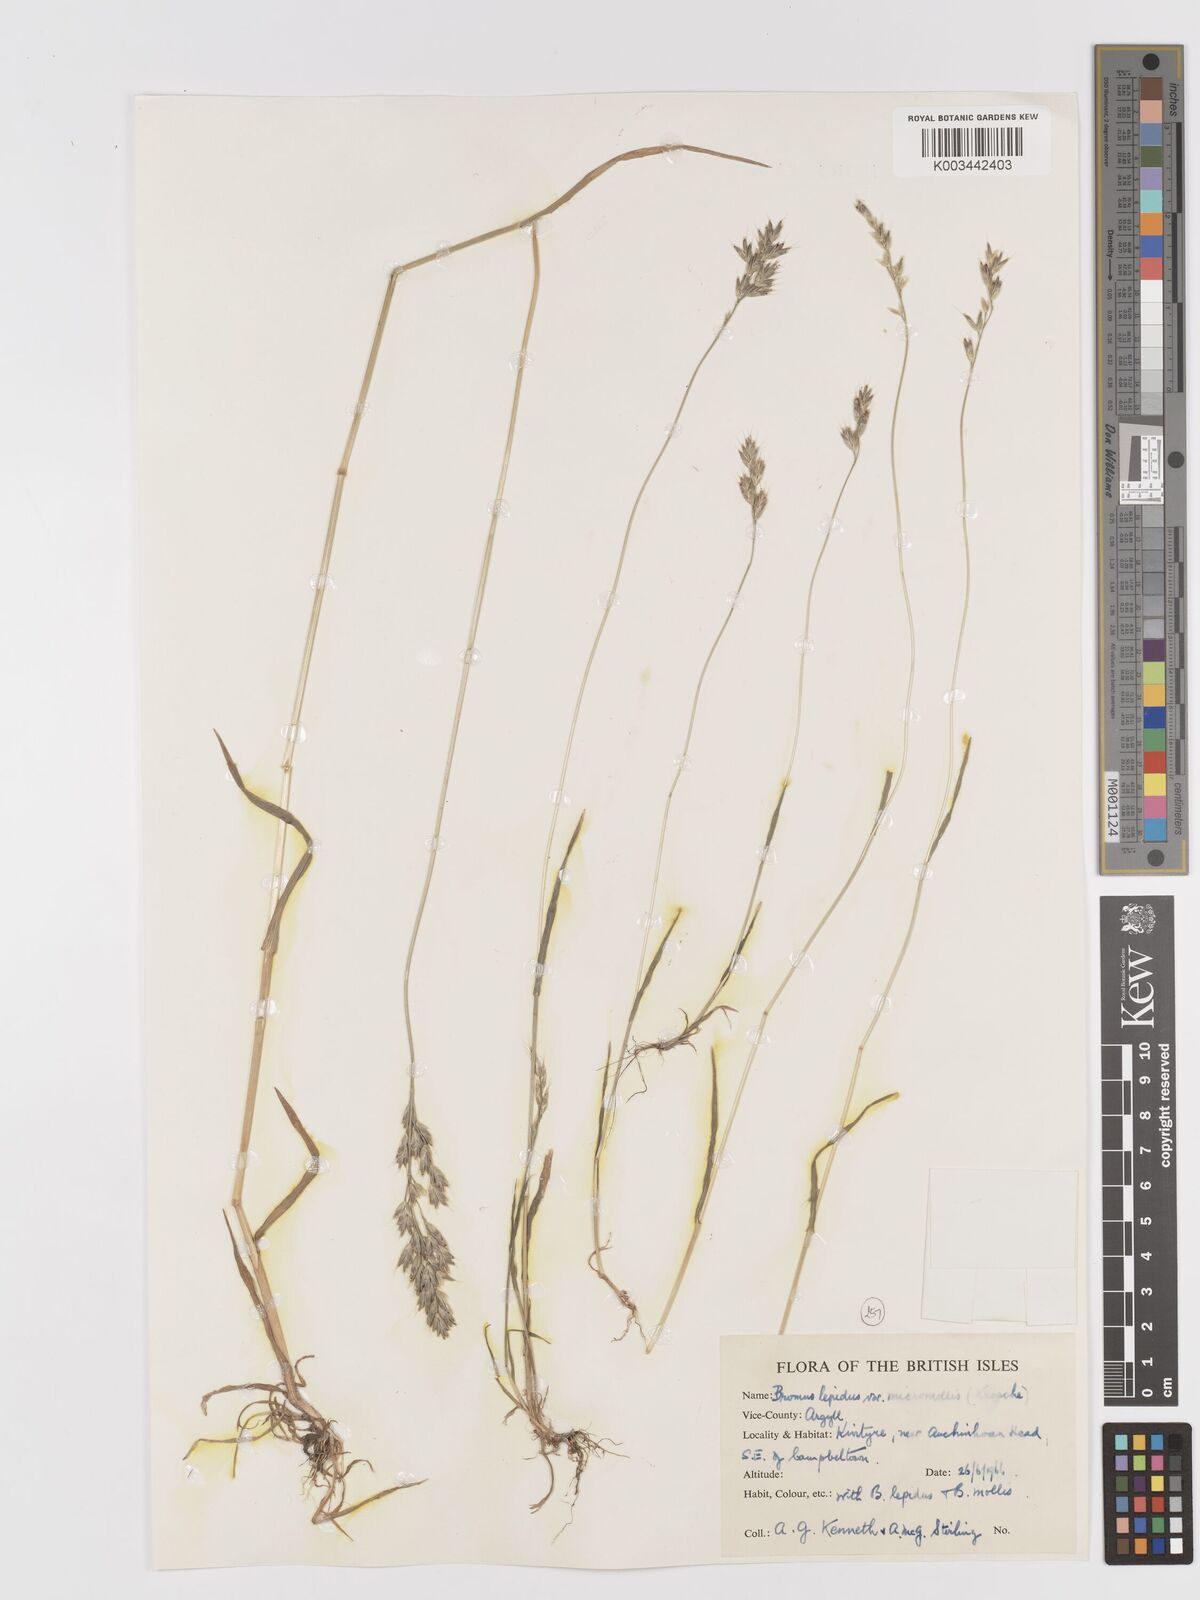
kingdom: Plantae
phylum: Tracheophyta
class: Liliopsida
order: Poales
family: Poaceae
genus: Bromus
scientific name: Bromus lepidus
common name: Slender soft-brome
